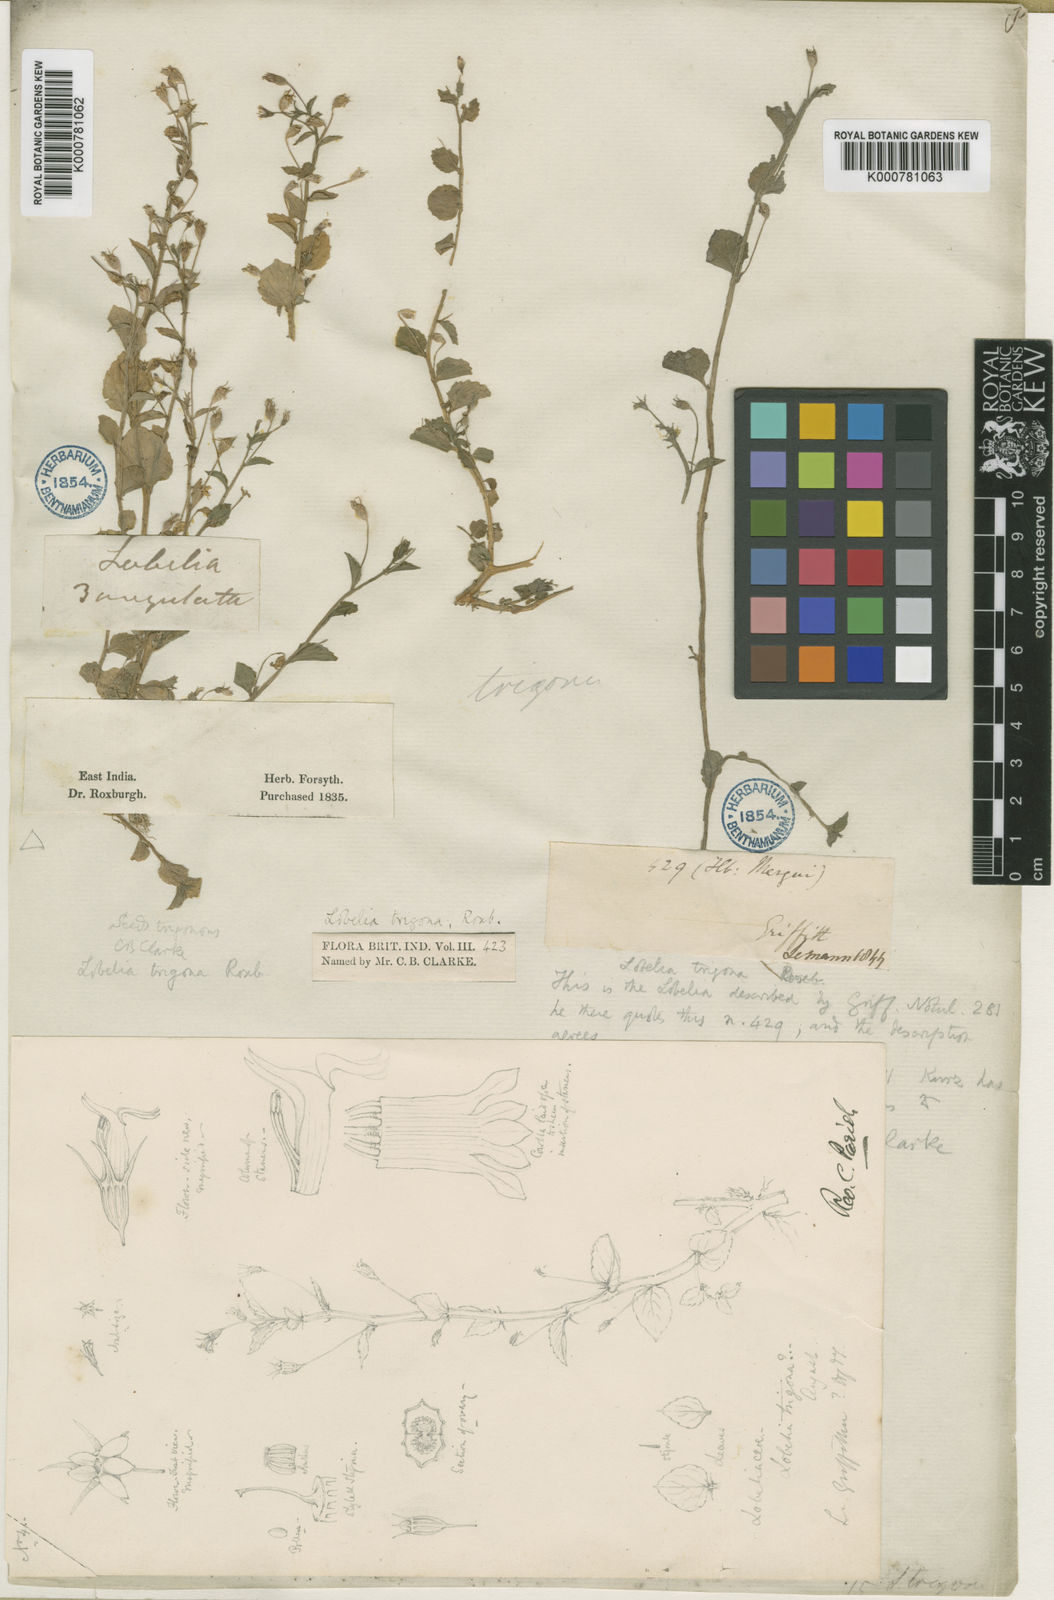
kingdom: Plantae
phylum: Tracheophyta
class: Magnoliopsida
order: Asterales
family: Campanulaceae
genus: Lobelia
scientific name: Lobelia alsinoides
